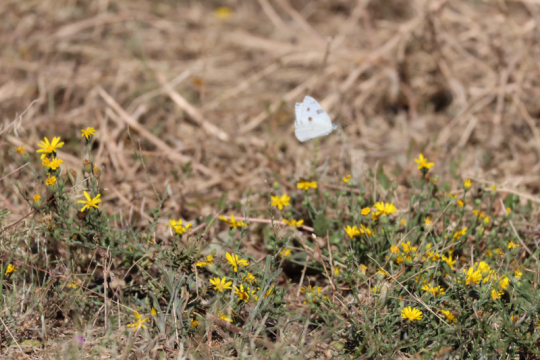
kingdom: Animalia
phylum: Arthropoda
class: Insecta
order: Lepidoptera
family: Pieridae
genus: Pontia
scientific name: Pontia protodice
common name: Checkered White
